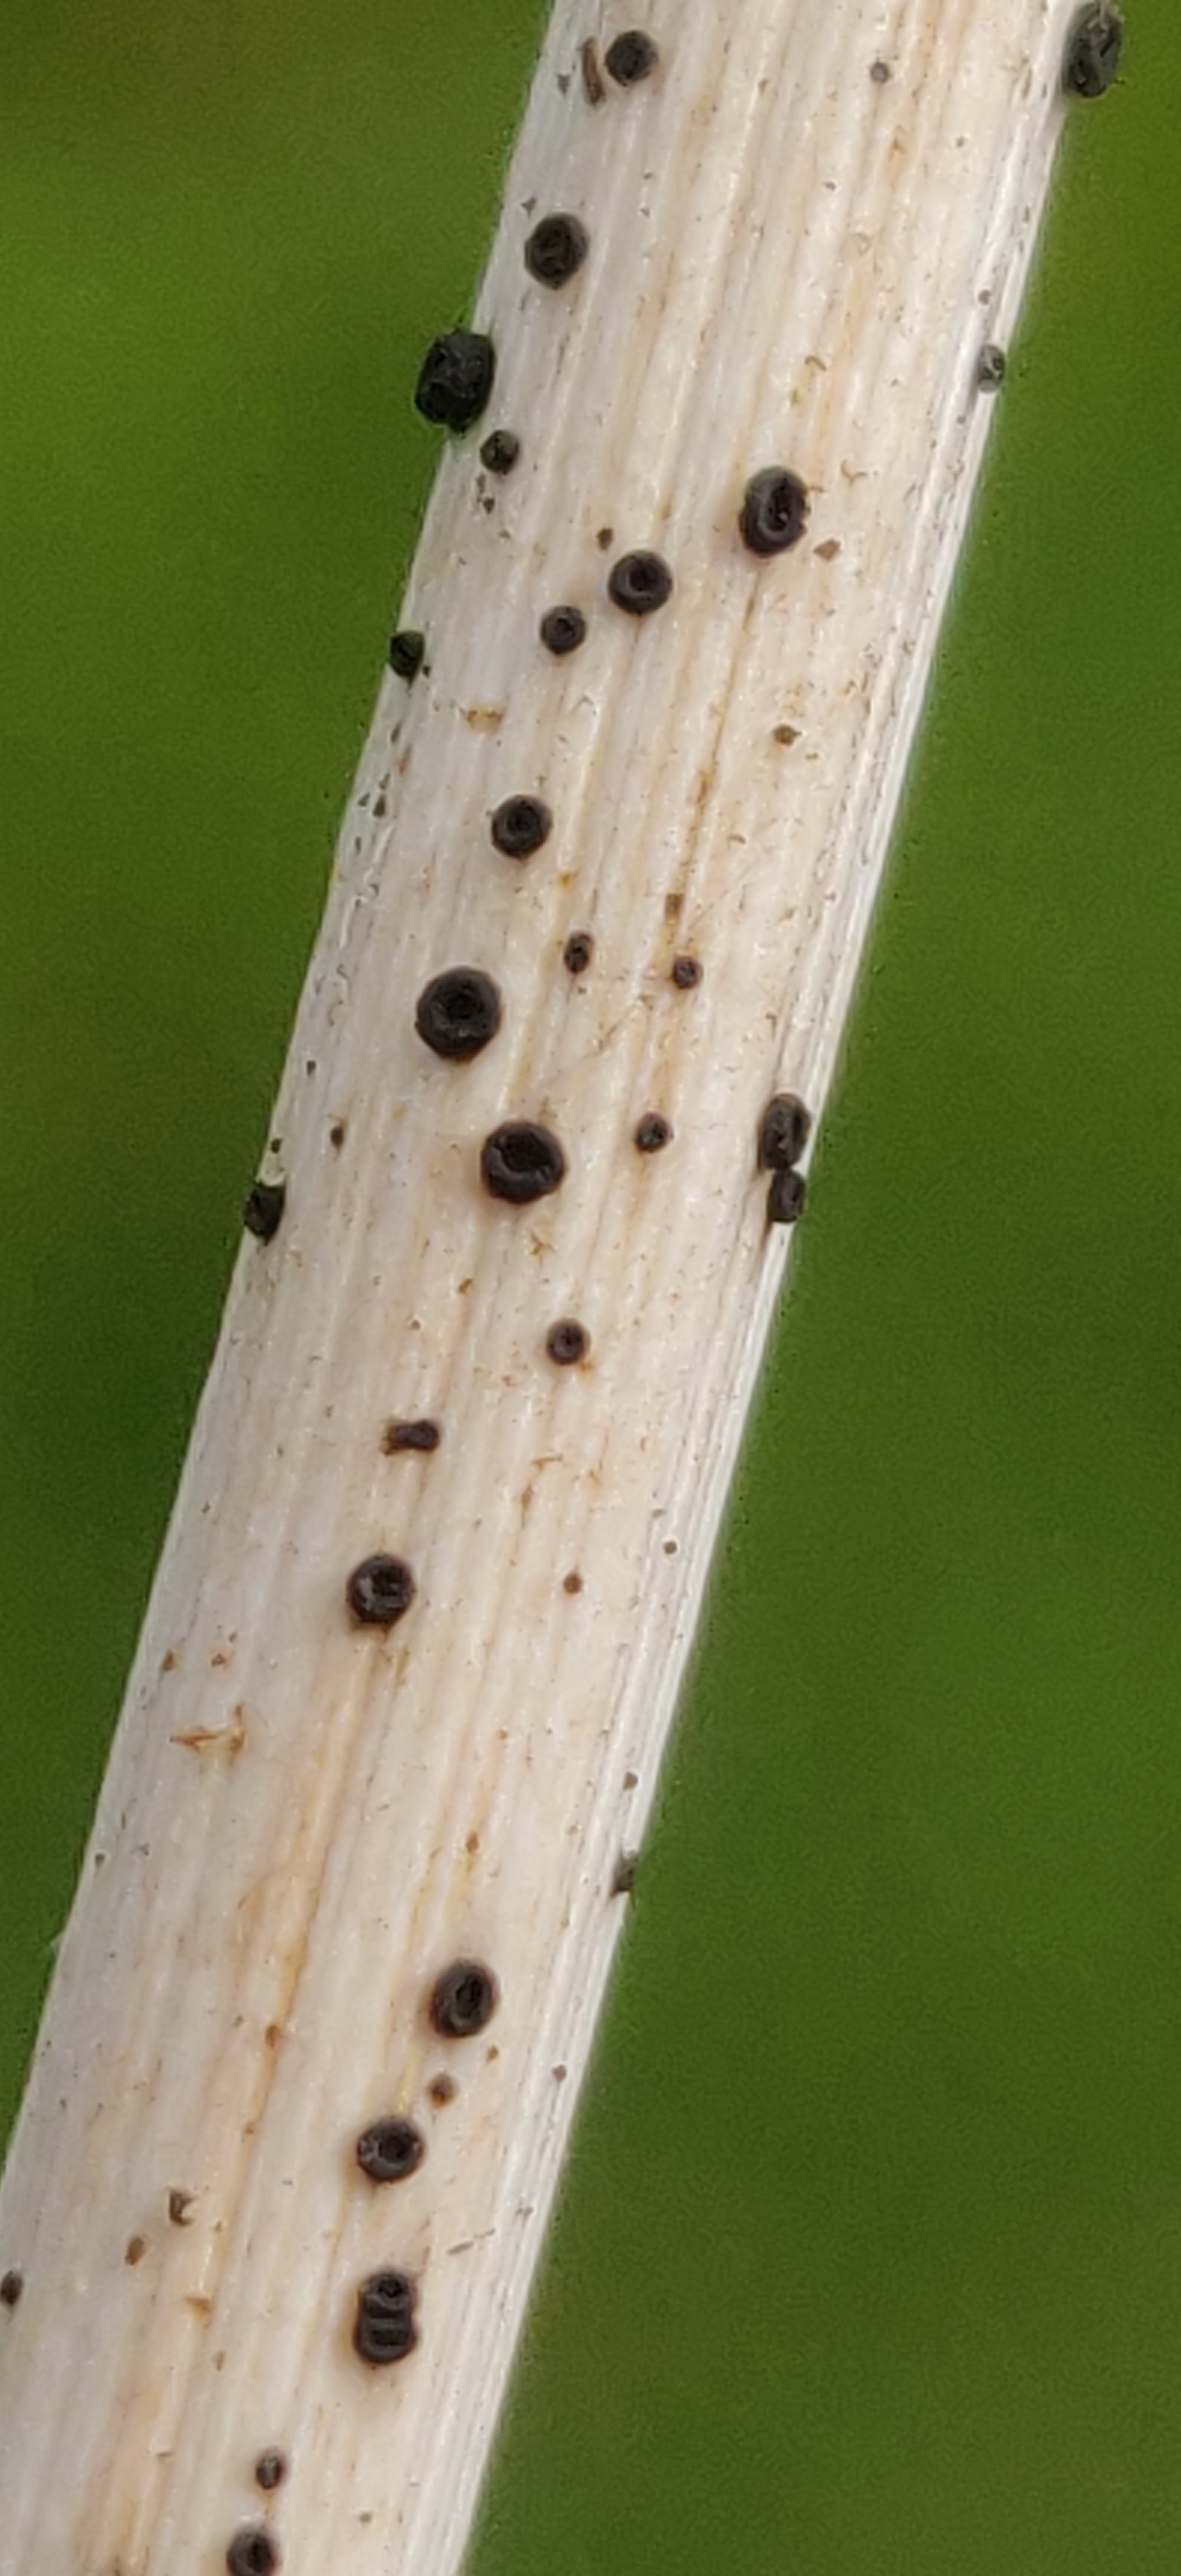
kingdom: Fungi
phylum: Ascomycota
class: Leotiomycetes
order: Helotiales
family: Heterosphaeriaceae
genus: Heterosphaeria
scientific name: Heterosphaeria
